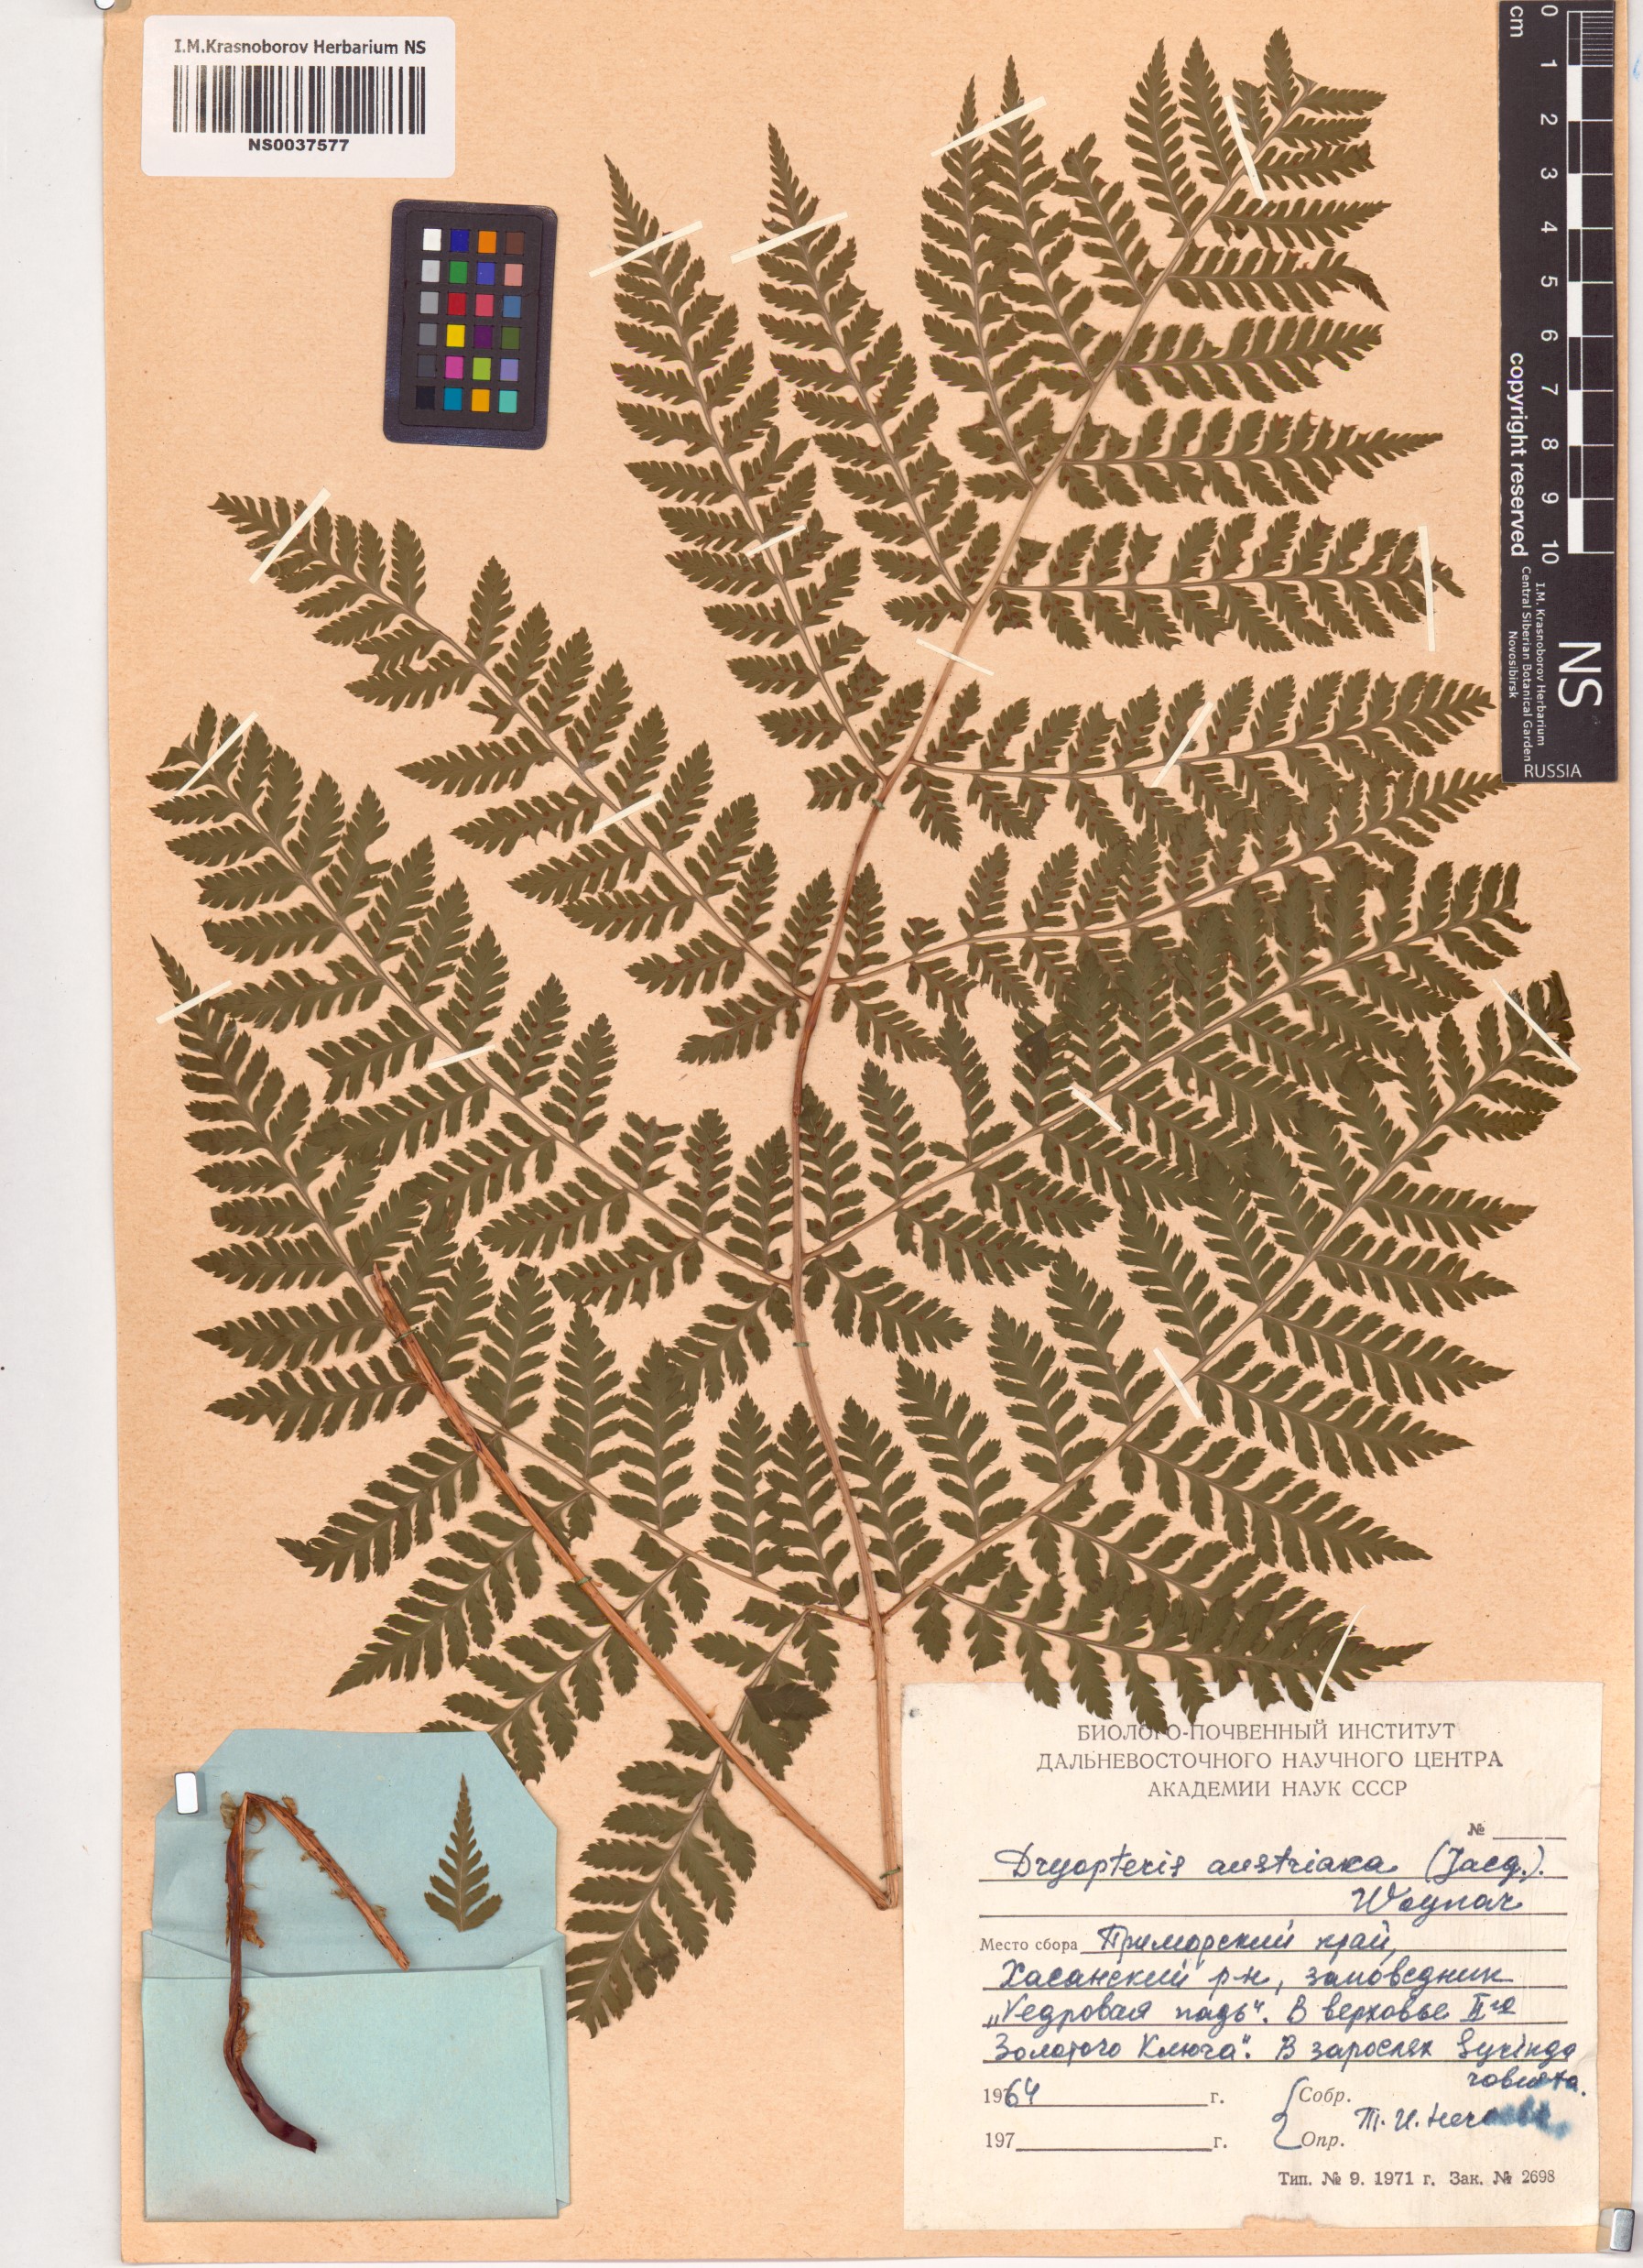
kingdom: Plantae
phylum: Tracheophyta
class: Polypodiopsida
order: Polypodiales
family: Dryopteridaceae
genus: Dryopteris
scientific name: Dryopteris dilatata
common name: Broad buckler-fern
